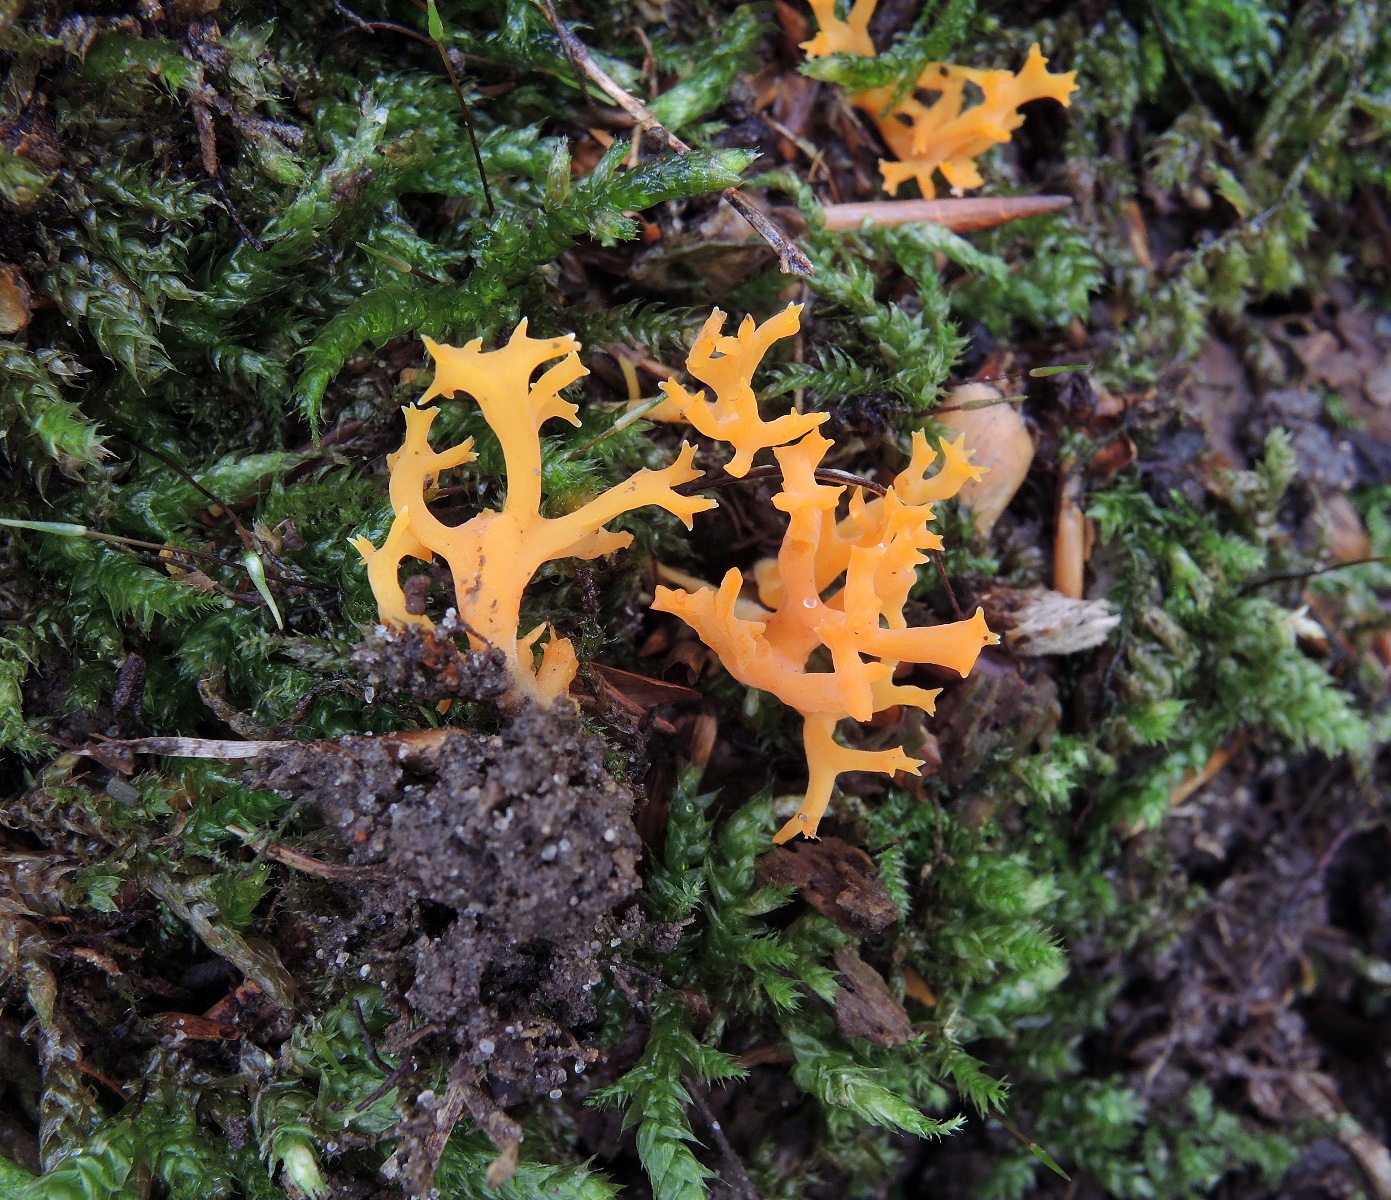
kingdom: Fungi
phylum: Basidiomycota
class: Agaricomycetes
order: Agaricales
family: Clavariaceae
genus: Ramariopsis
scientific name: Ramariopsis crocea
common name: gylden køllesvamp
